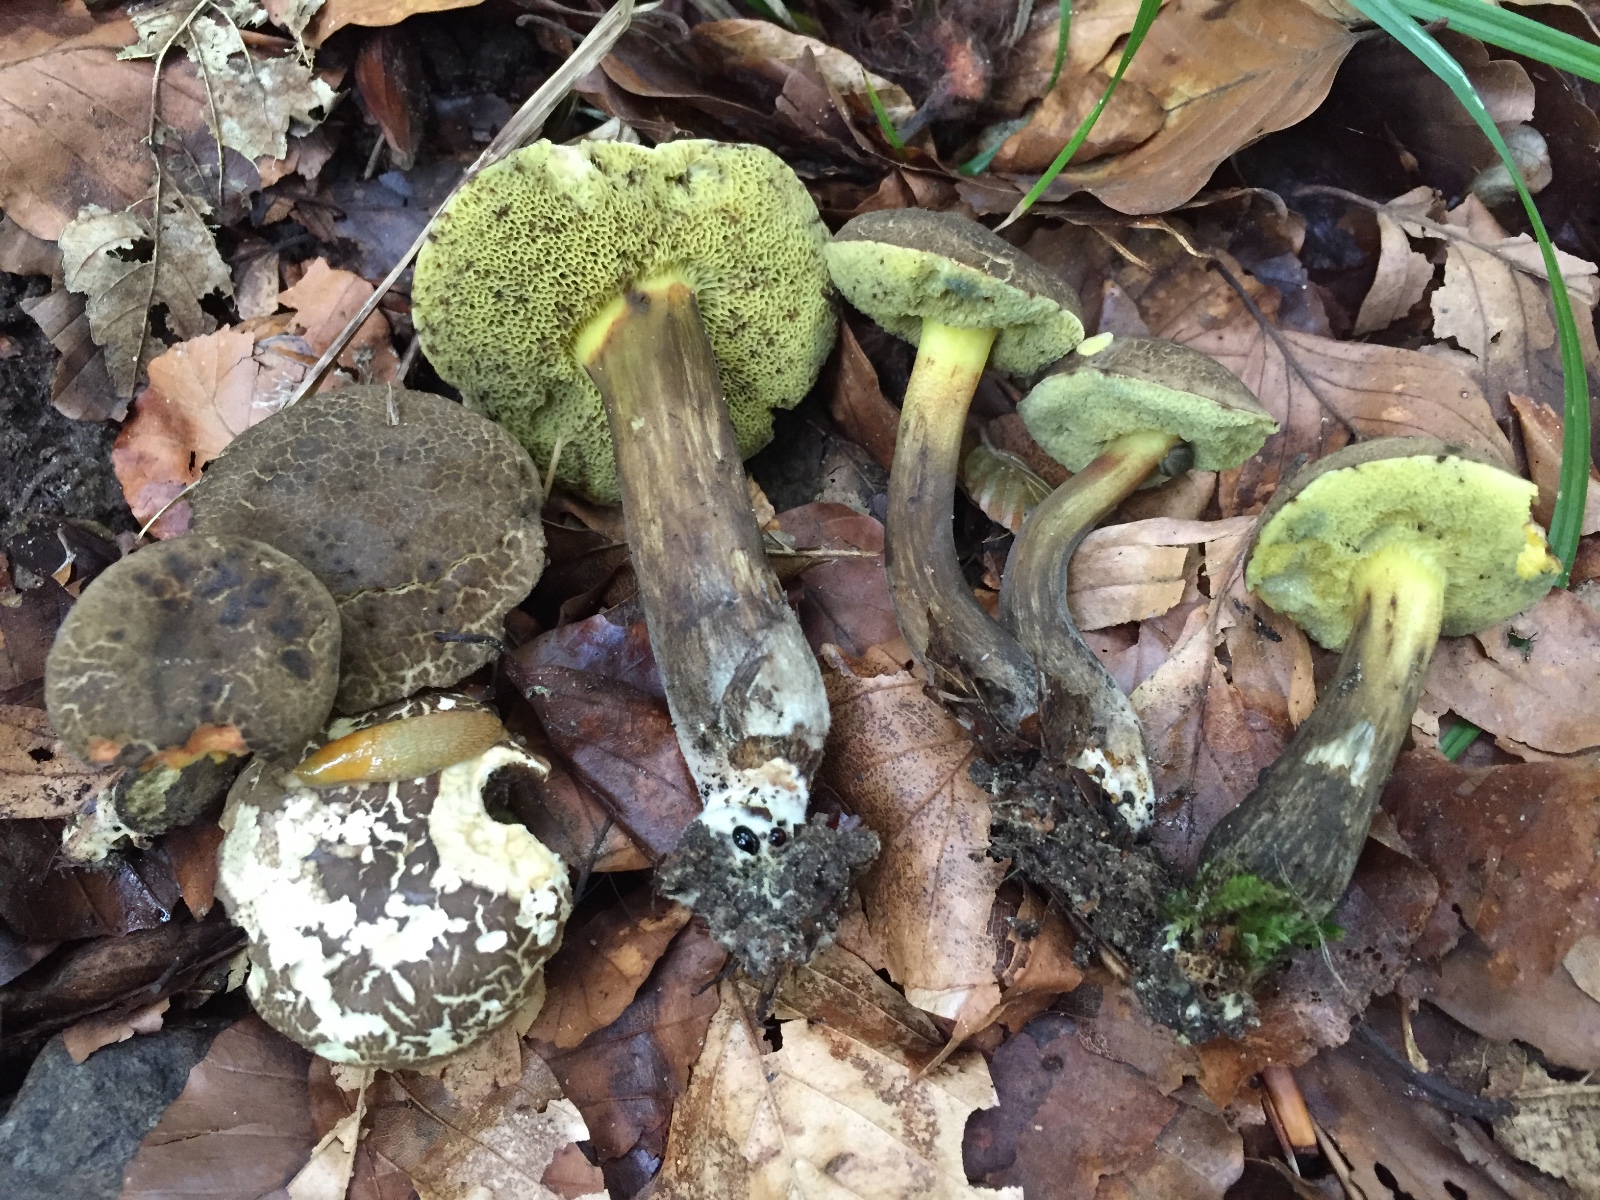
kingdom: Fungi
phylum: Basidiomycota
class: Agaricomycetes
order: Boletales
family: Boletaceae
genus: Xerocomellus
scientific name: Xerocomellus porosporus
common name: hvidsprukken rørhat
